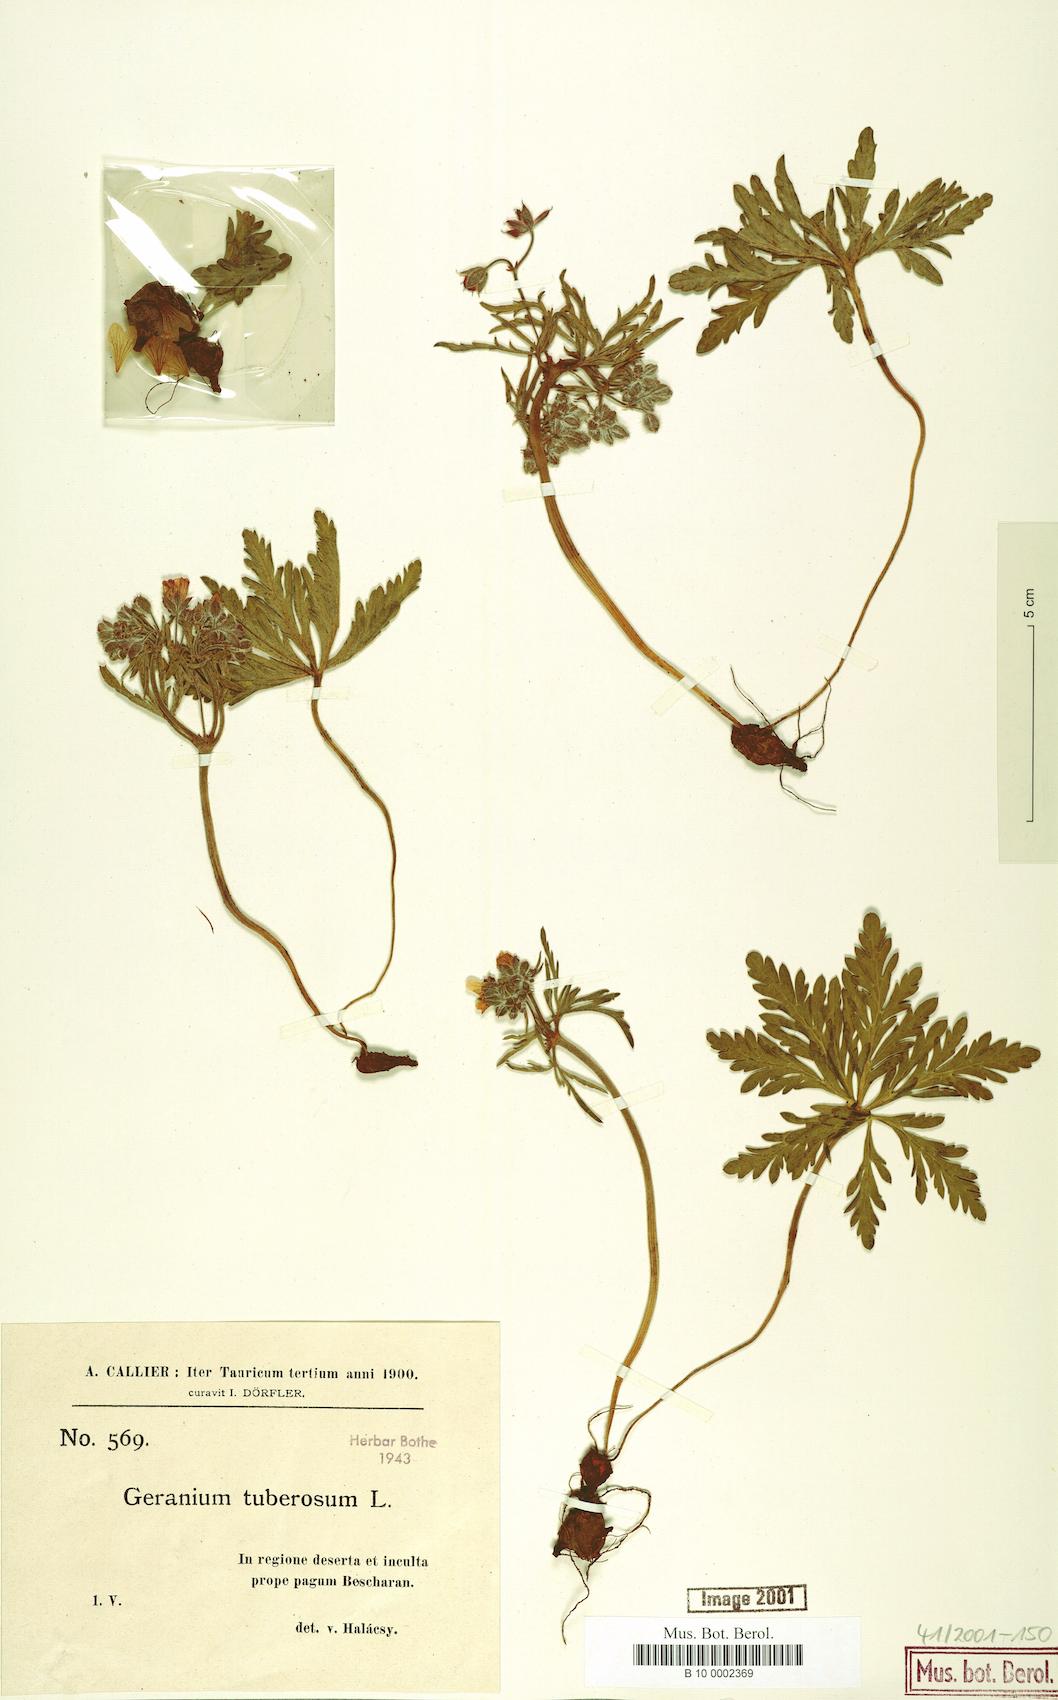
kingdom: Plantae
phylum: Tracheophyta
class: Magnoliopsida
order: Geraniales
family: Geraniaceae
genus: Geranium
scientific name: Geranium tuberosum
